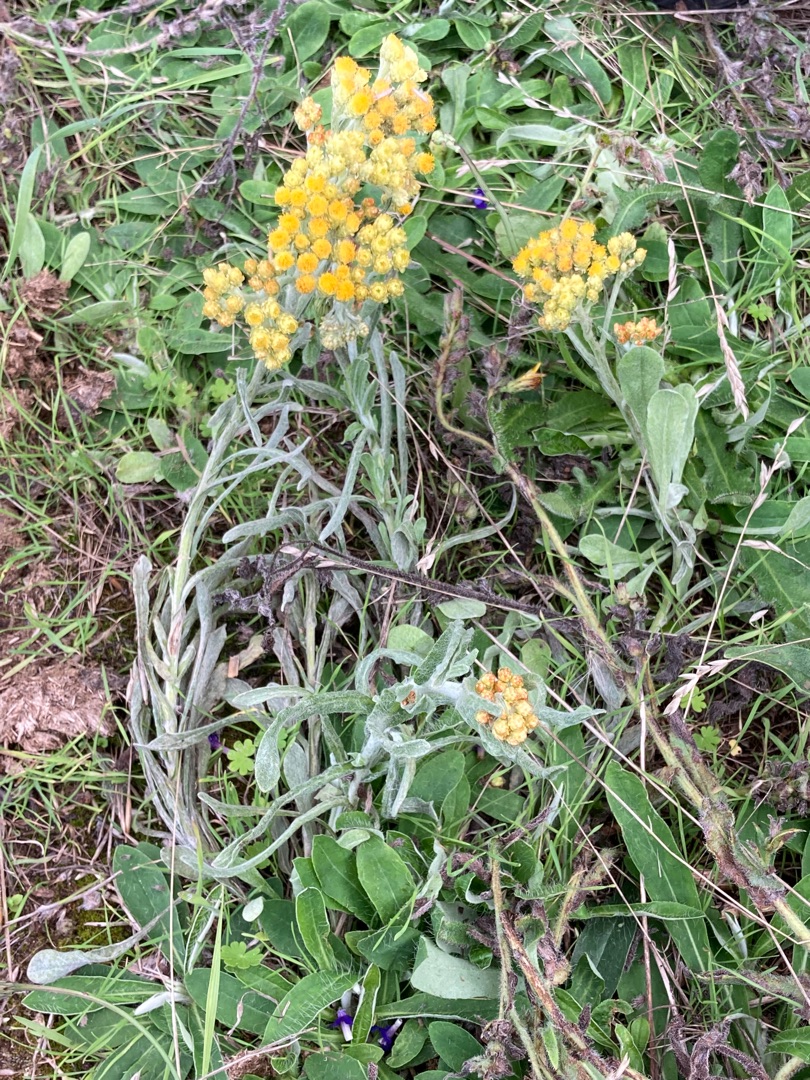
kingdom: Plantae
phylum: Tracheophyta
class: Magnoliopsida
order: Asterales
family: Asteraceae
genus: Helichrysum
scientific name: Helichrysum arenarium
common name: Gul evighedsblomst
